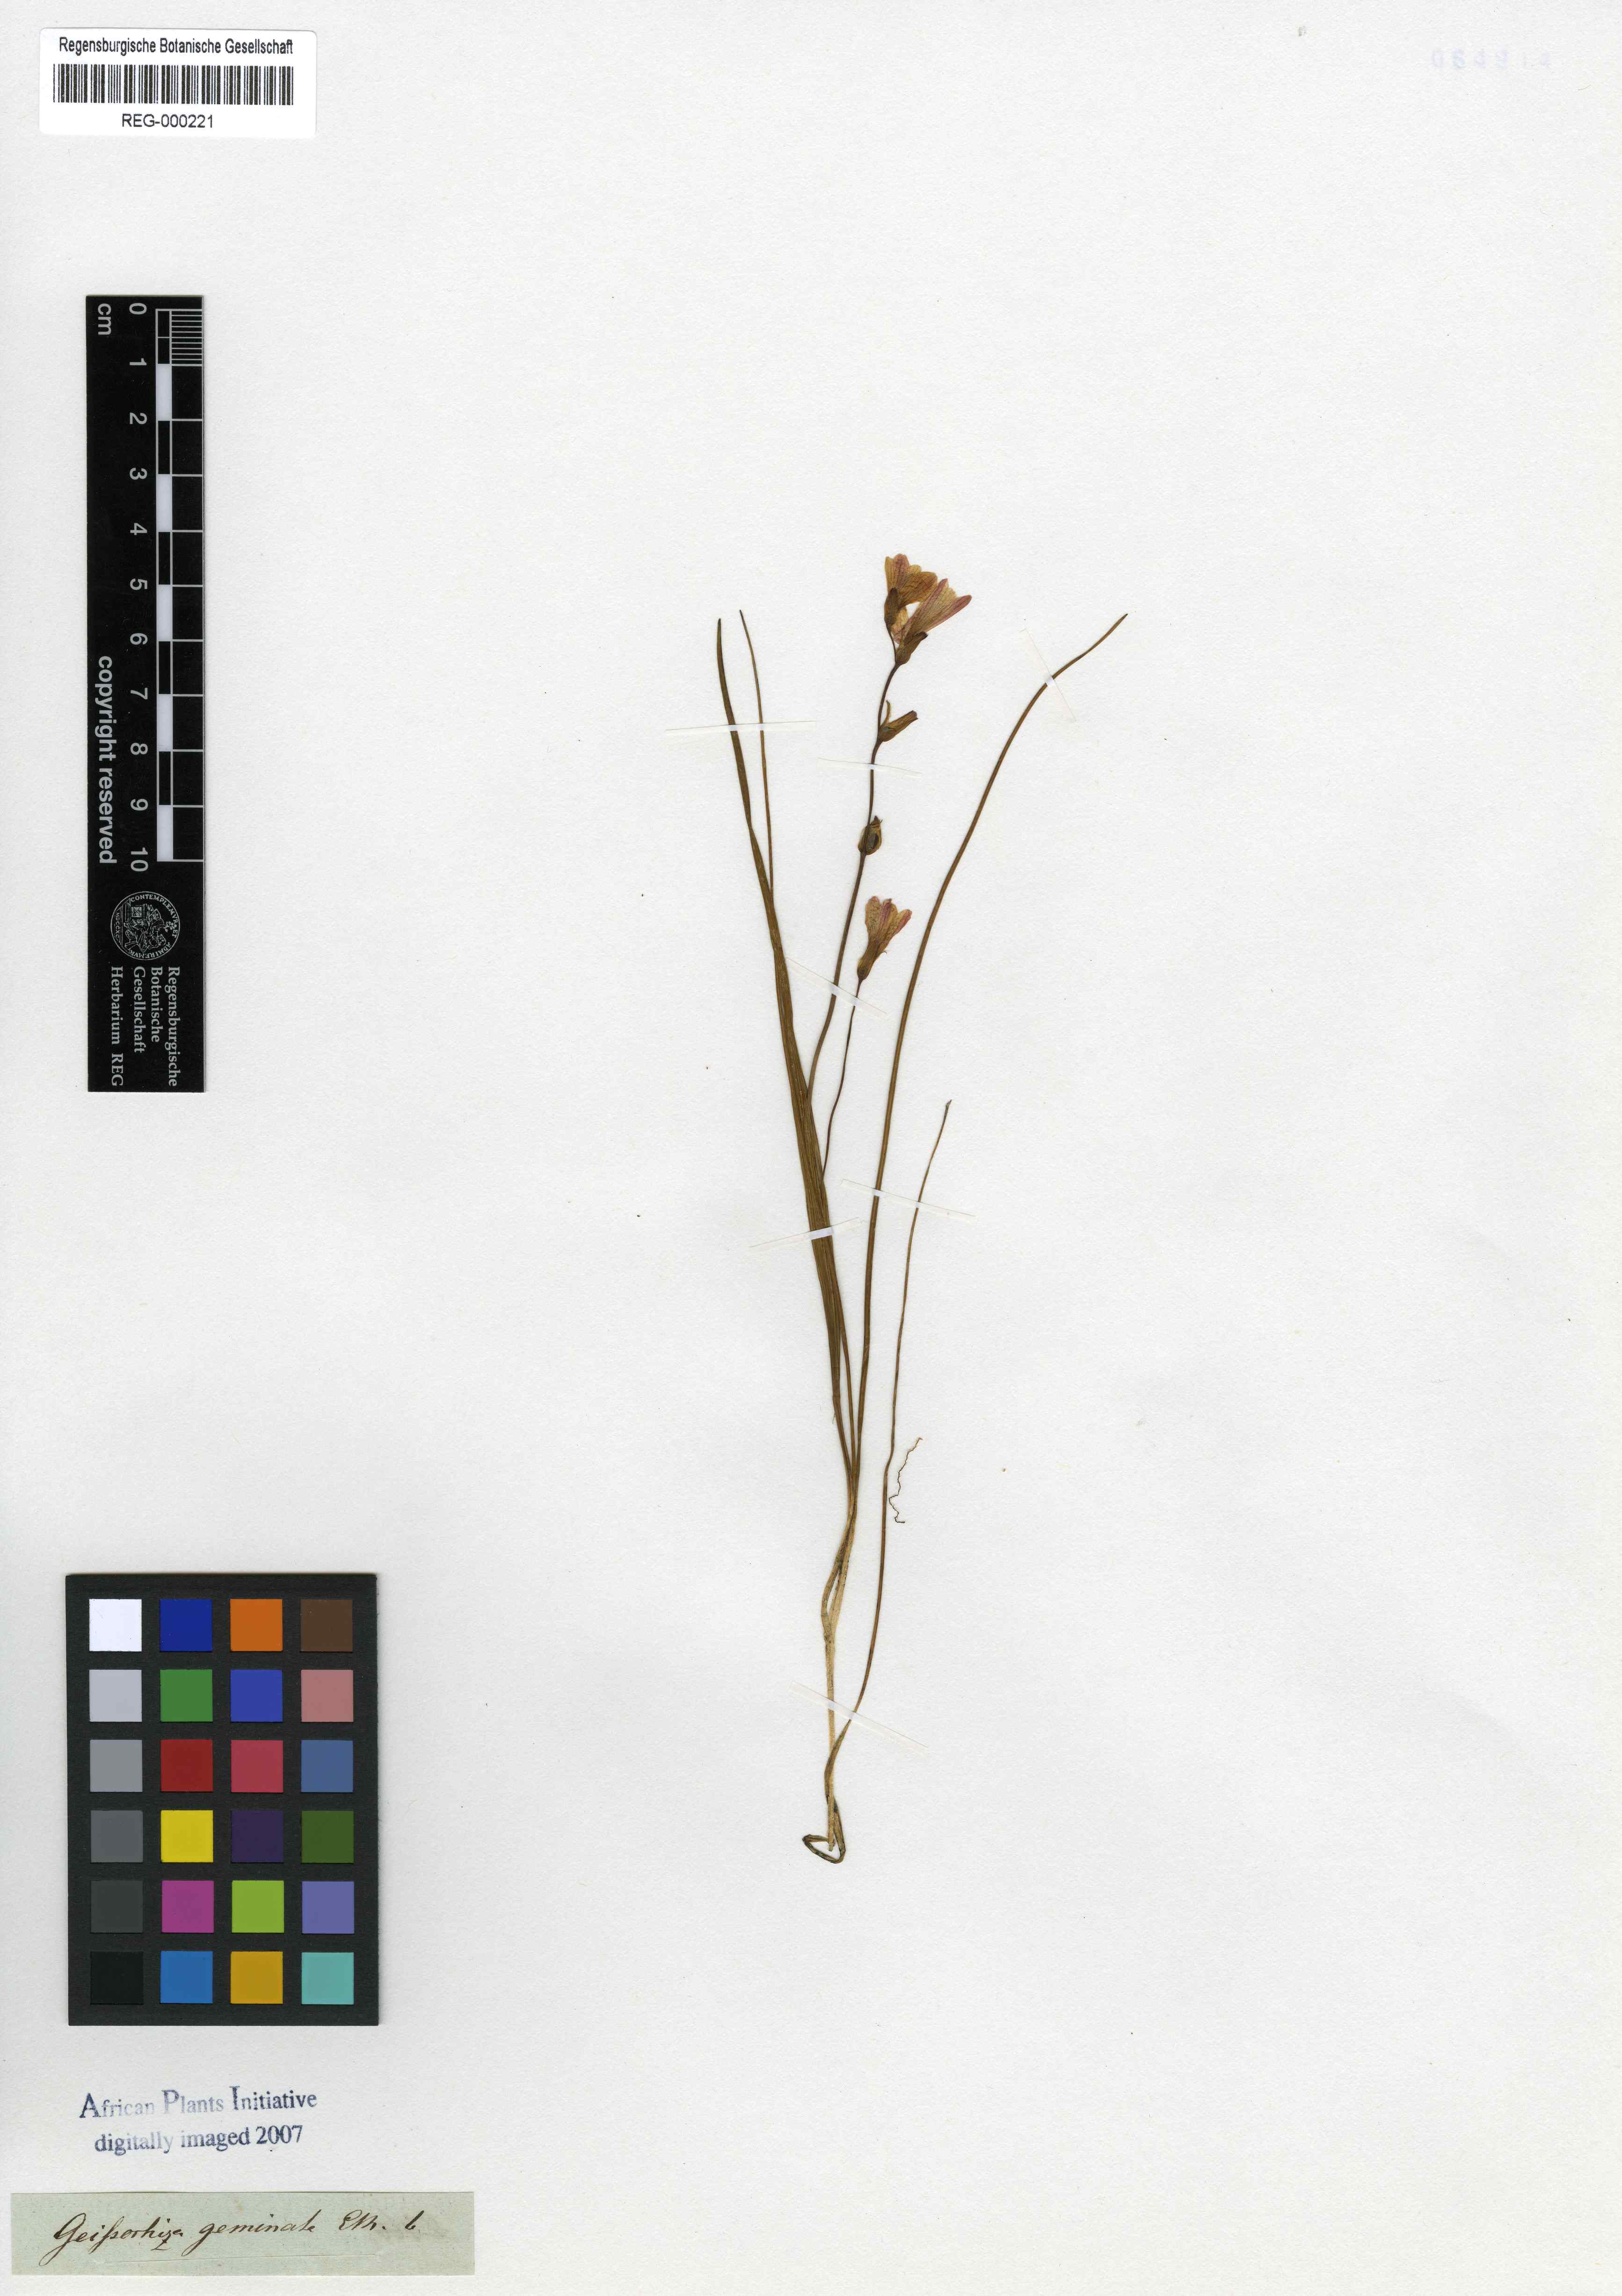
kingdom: Plantae
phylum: Tracheophyta
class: Liliopsida
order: Asparagales
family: Iridaceae
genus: Geissorhiza
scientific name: Geissorhiza geminata
